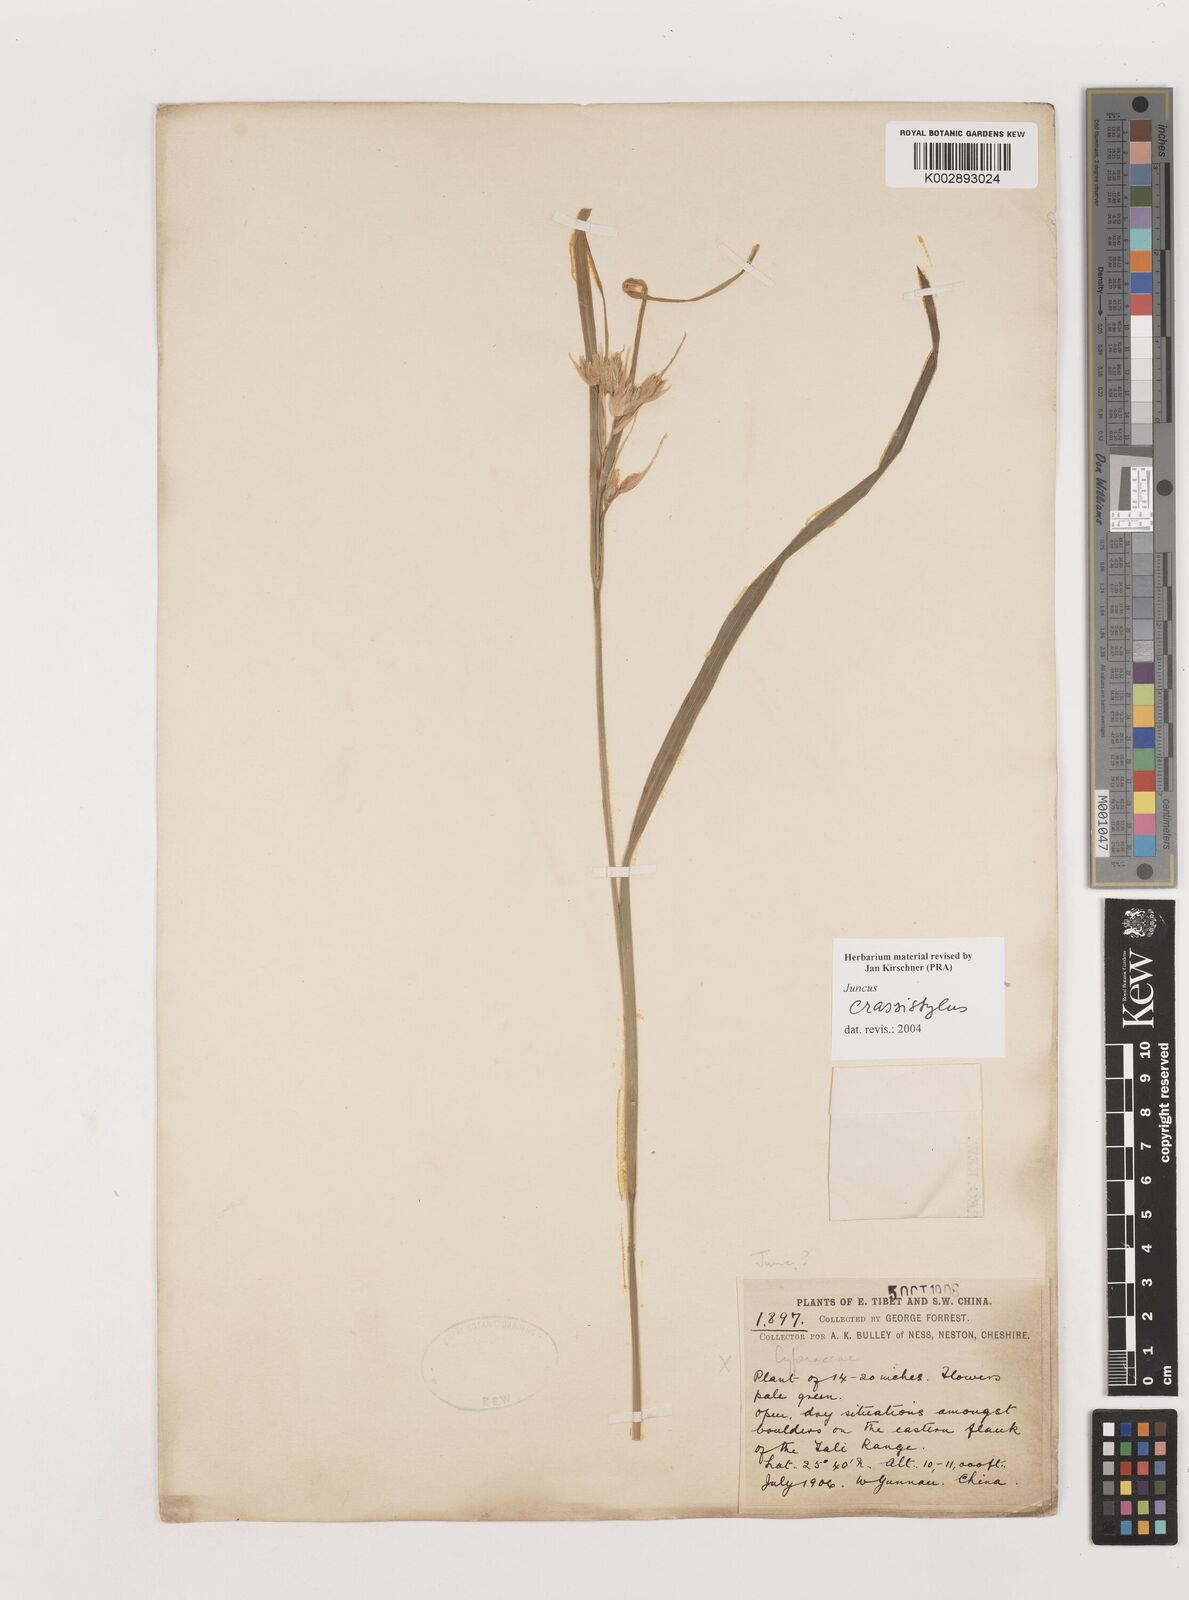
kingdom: Plantae
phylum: Tracheophyta
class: Liliopsida
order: Poales
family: Juncaceae
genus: Juncus
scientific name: Juncus crassistylus
